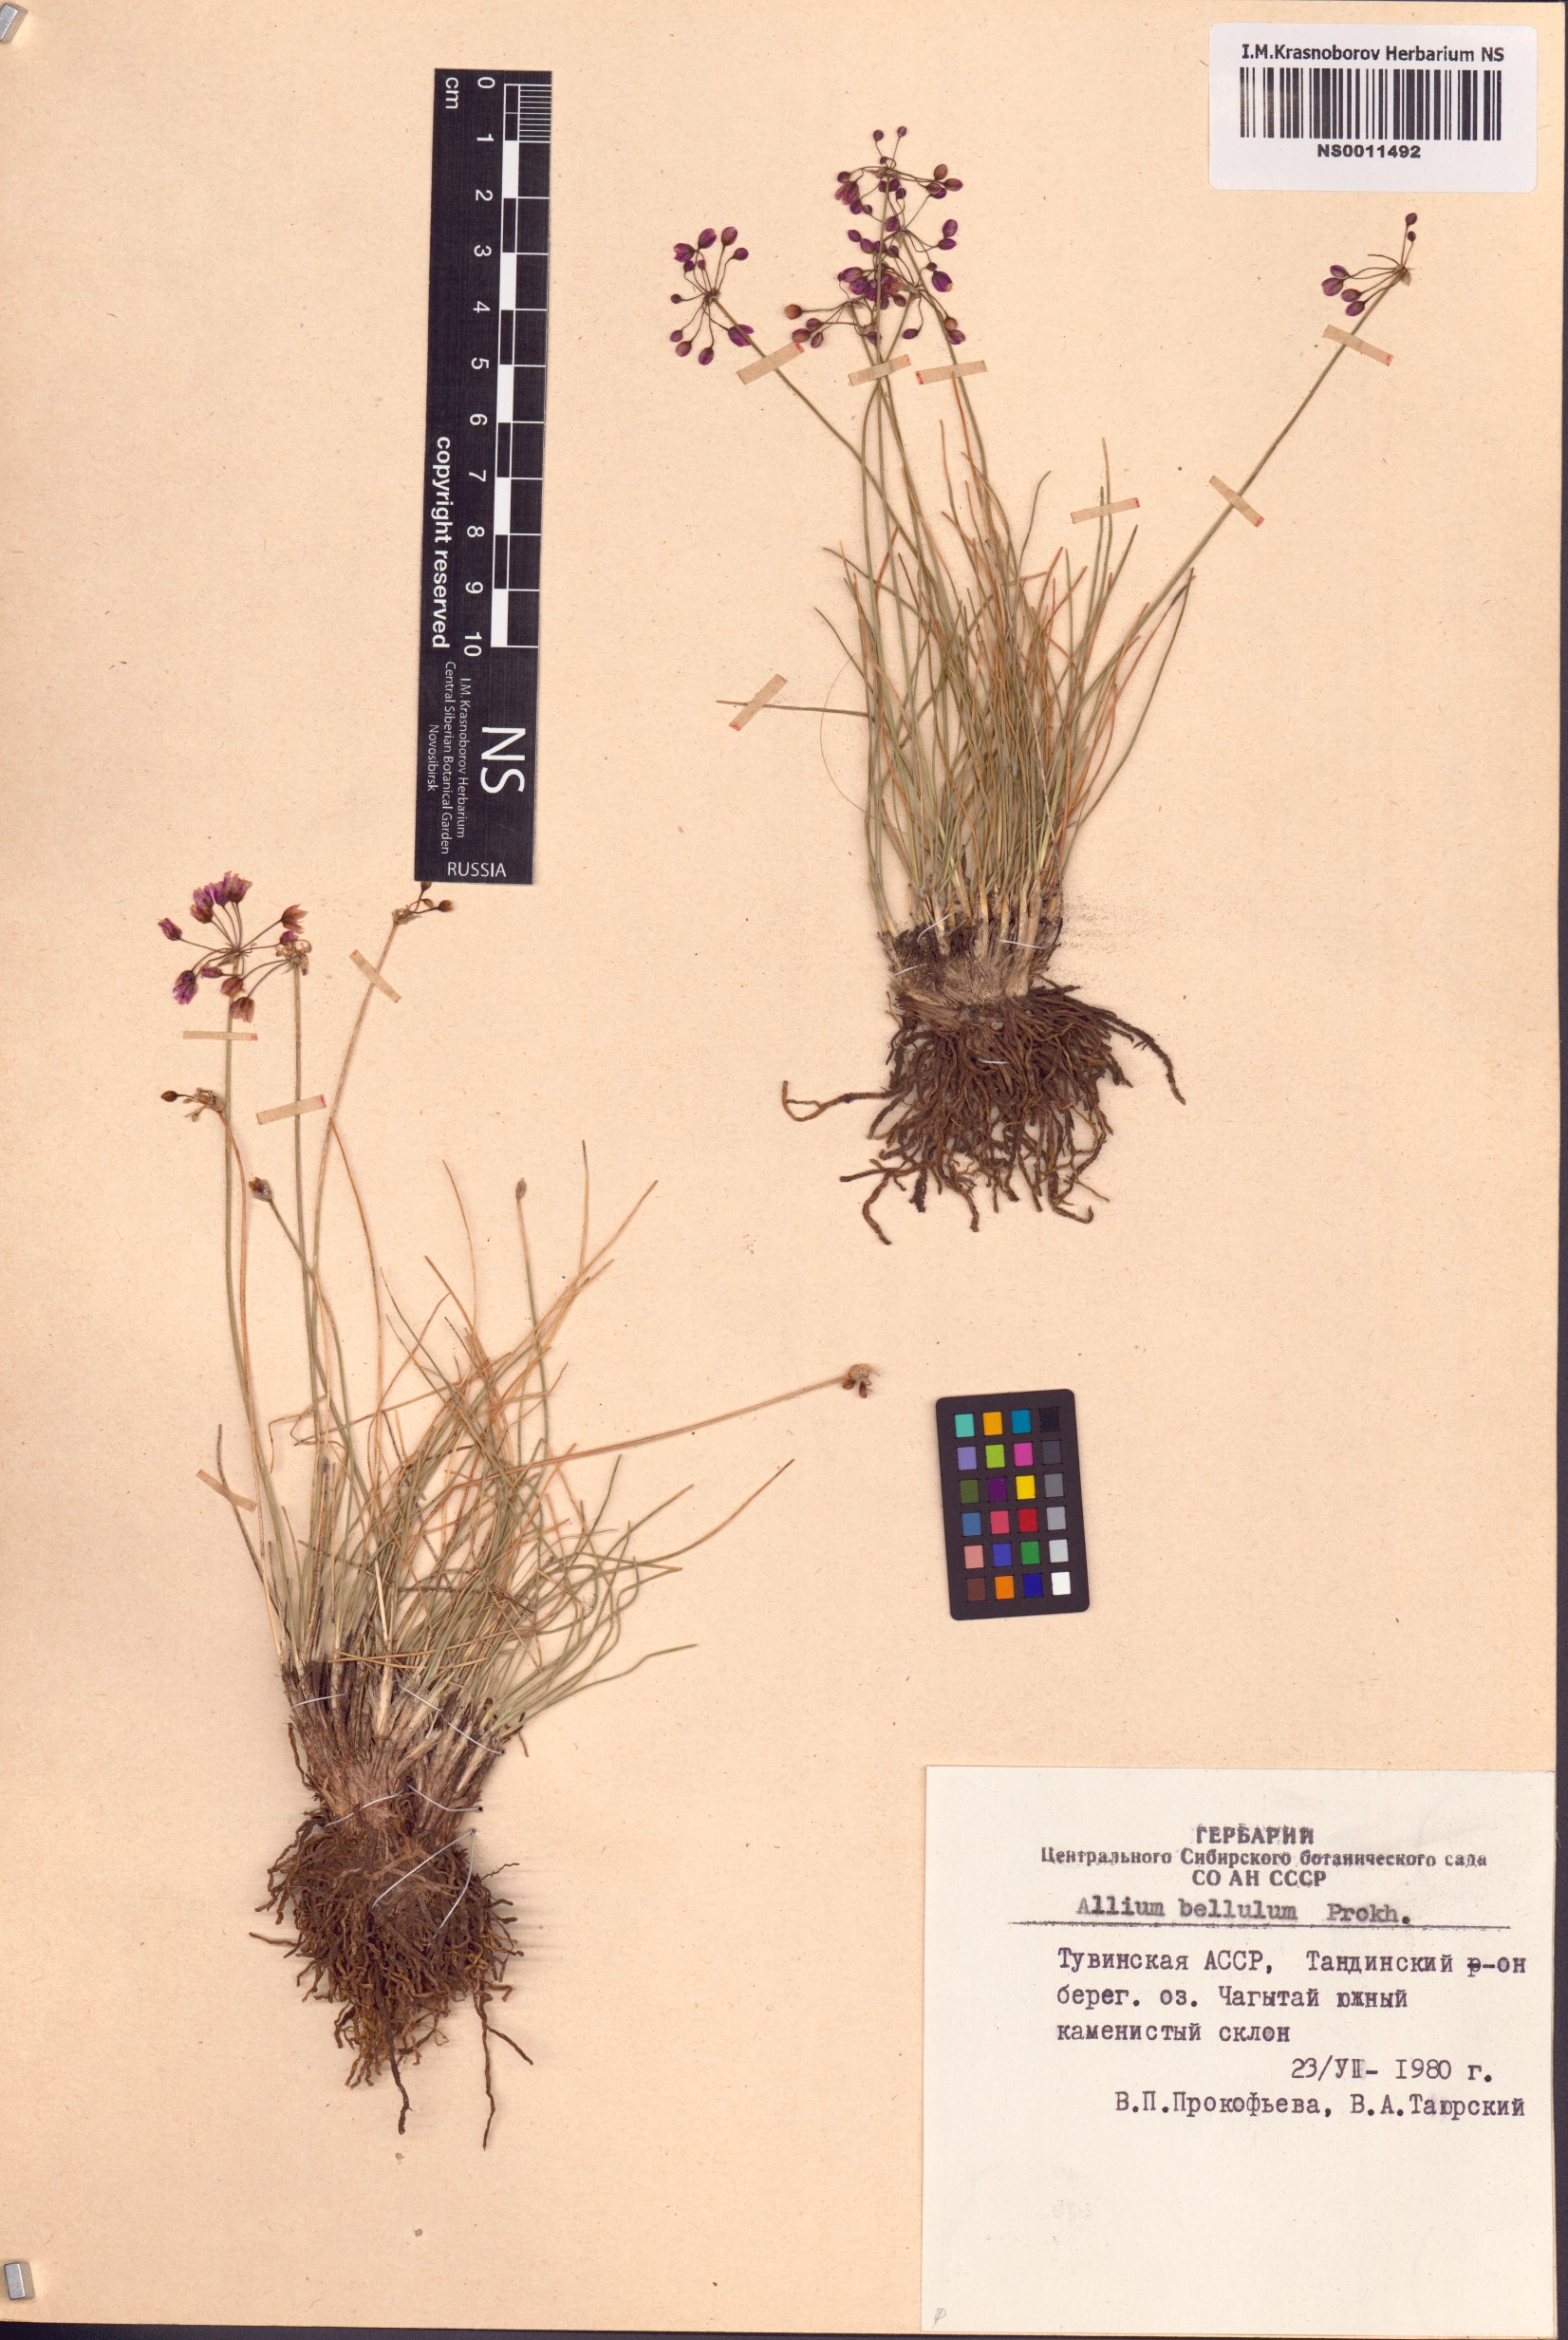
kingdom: Plantae
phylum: Tracheophyta
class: Liliopsida
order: Asparagales
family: Amaryllidaceae
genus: Allium
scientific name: Allium bellulum
